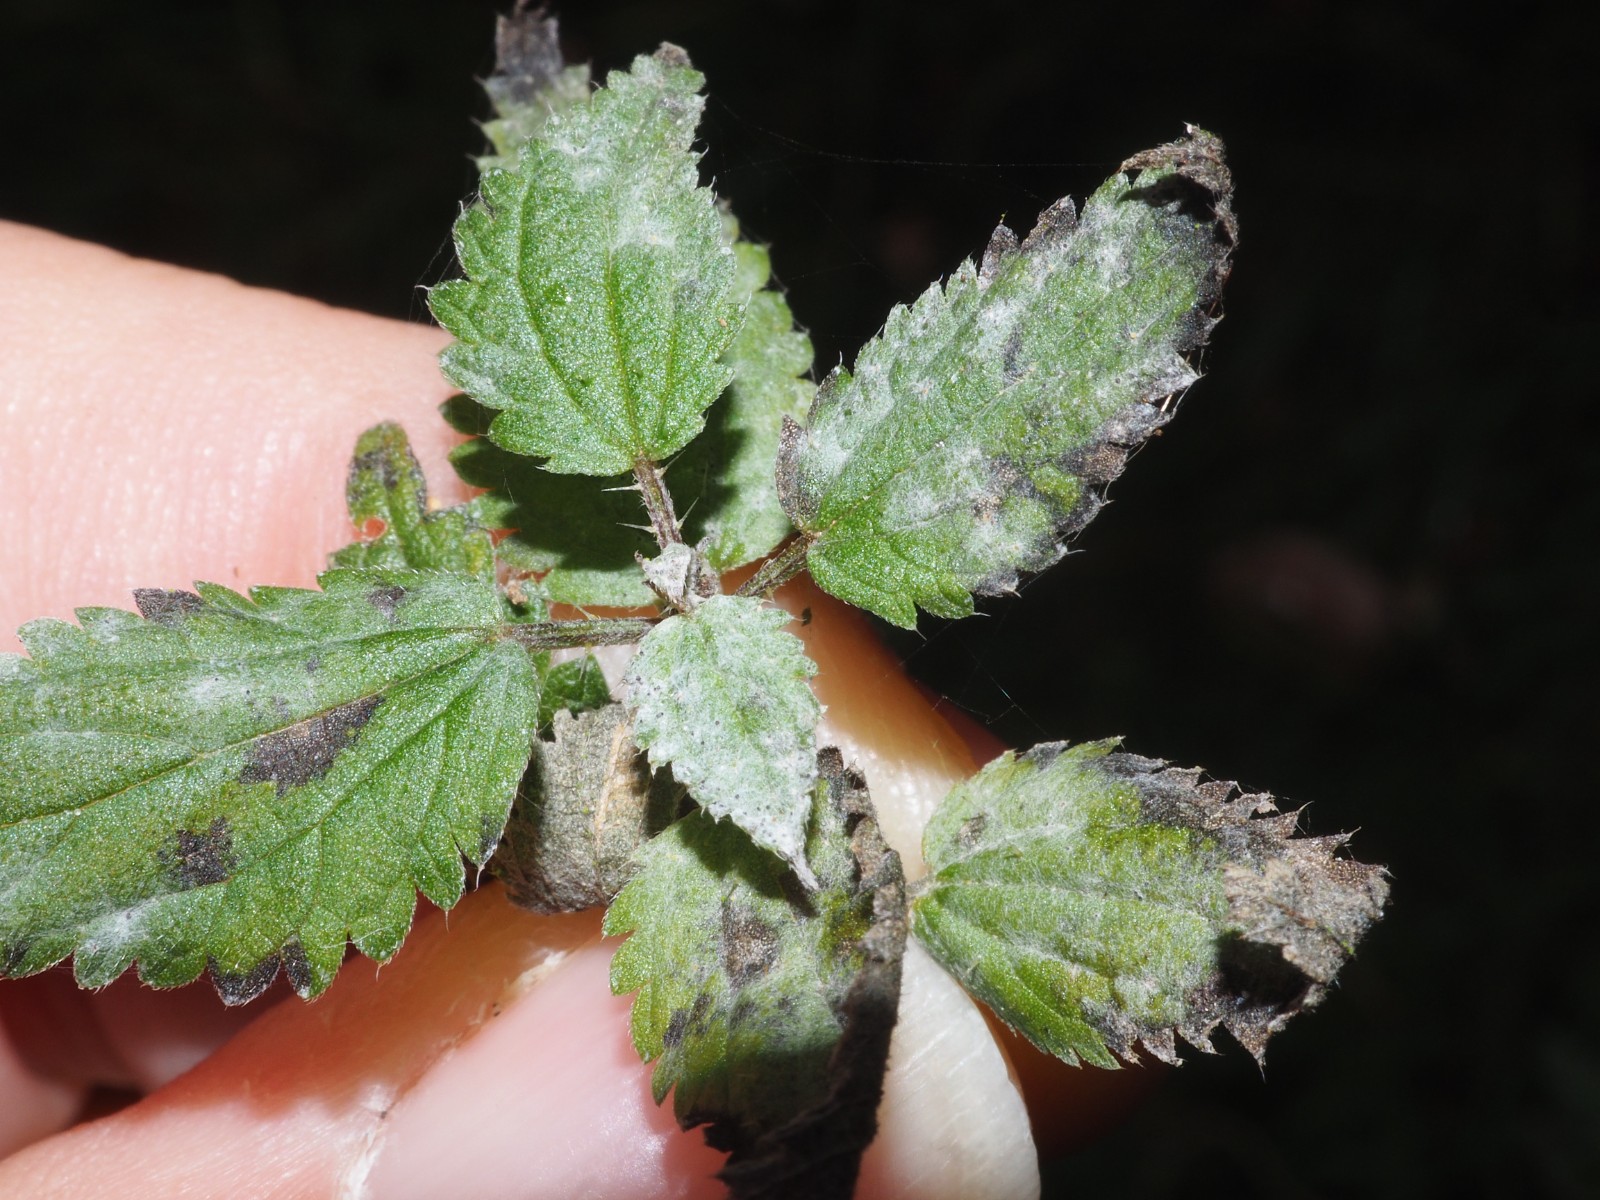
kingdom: Fungi
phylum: Ascomycota
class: Leotiomycetes
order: Helotiales
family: Erysiphaceae
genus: Erysiphe
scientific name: Erysiphe urticae
